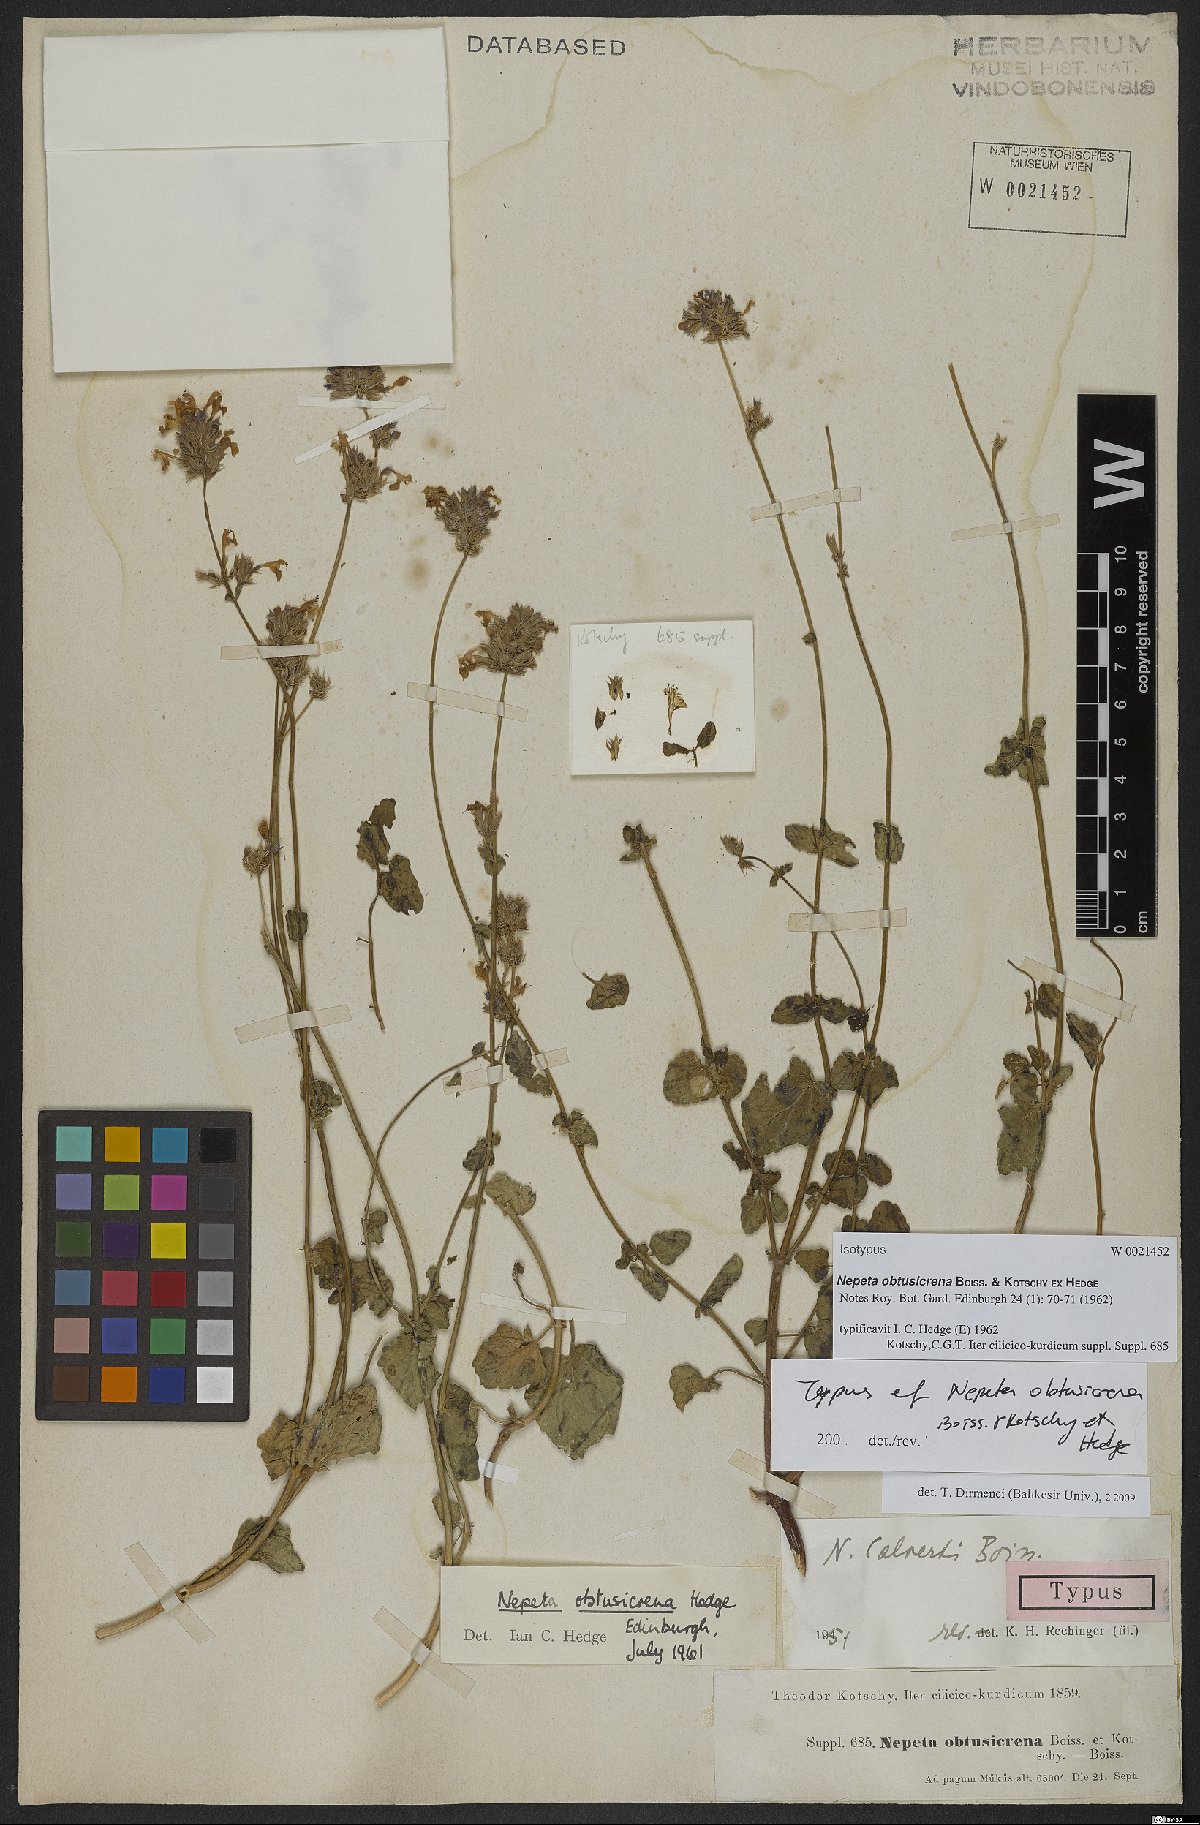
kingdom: Plantae
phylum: Tracheophyta
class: Magnoliopsida
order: Lamiales
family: Lamiaceae
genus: Nepeta
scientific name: Nepeta obtusicrena
